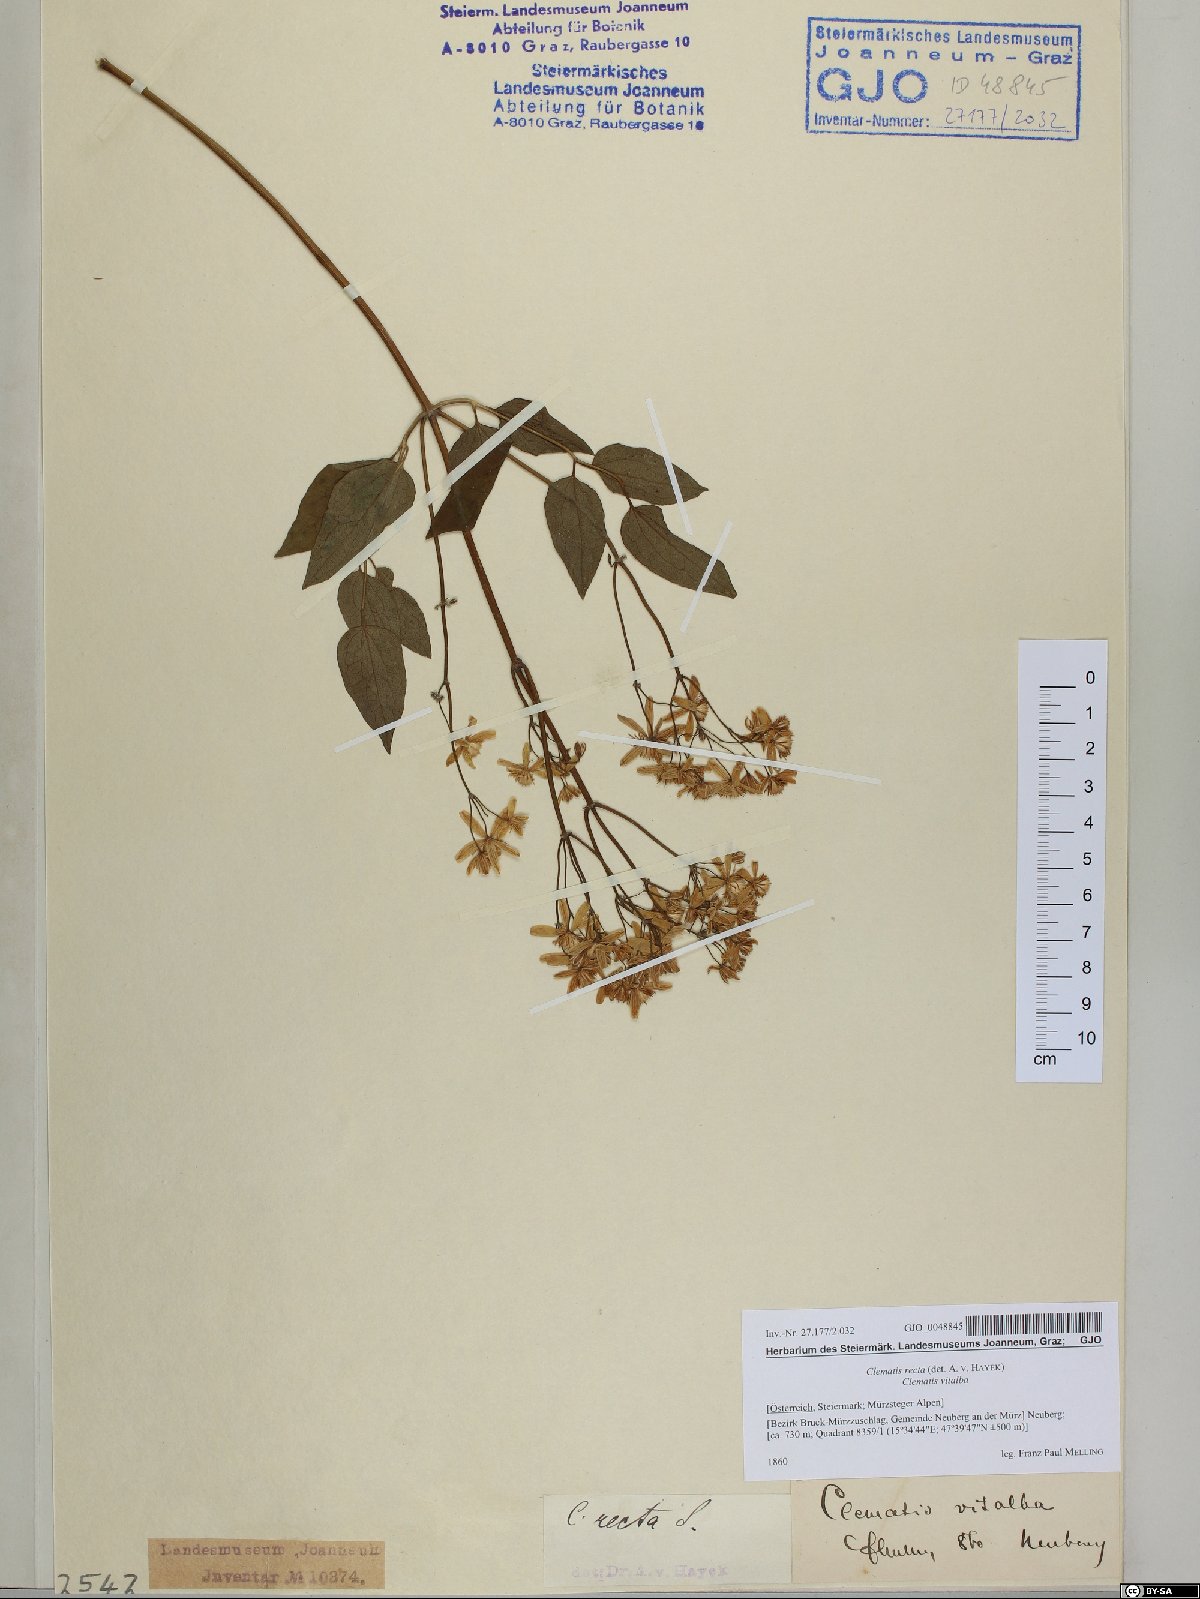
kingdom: Plantae
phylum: Tracheophyta
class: Magnoliopsida
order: Ranunculales
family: Ranunculaceae
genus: Clematis
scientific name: Clematis recta
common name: Ground clematis
